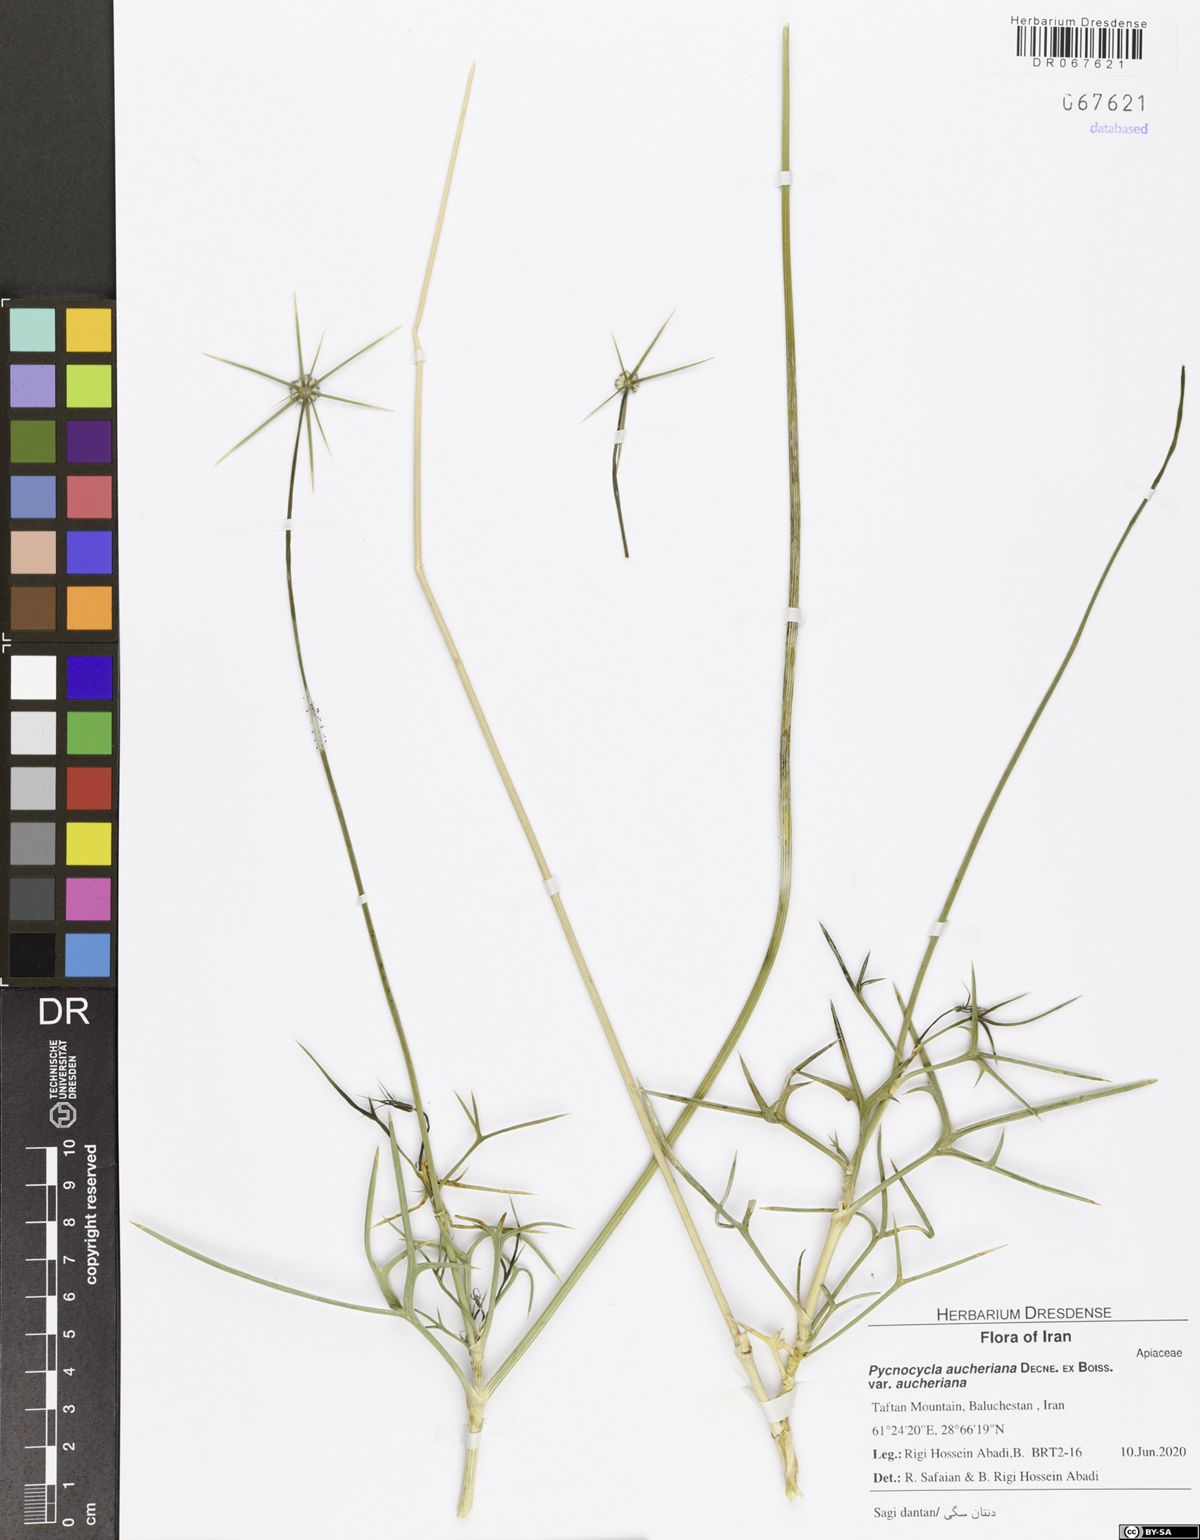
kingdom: Plantae
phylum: Tracheophyta
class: Magnoliopsida
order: Apiales
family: Apiaceae
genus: Pycnocycla
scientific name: Pycnocycla aucheriana
